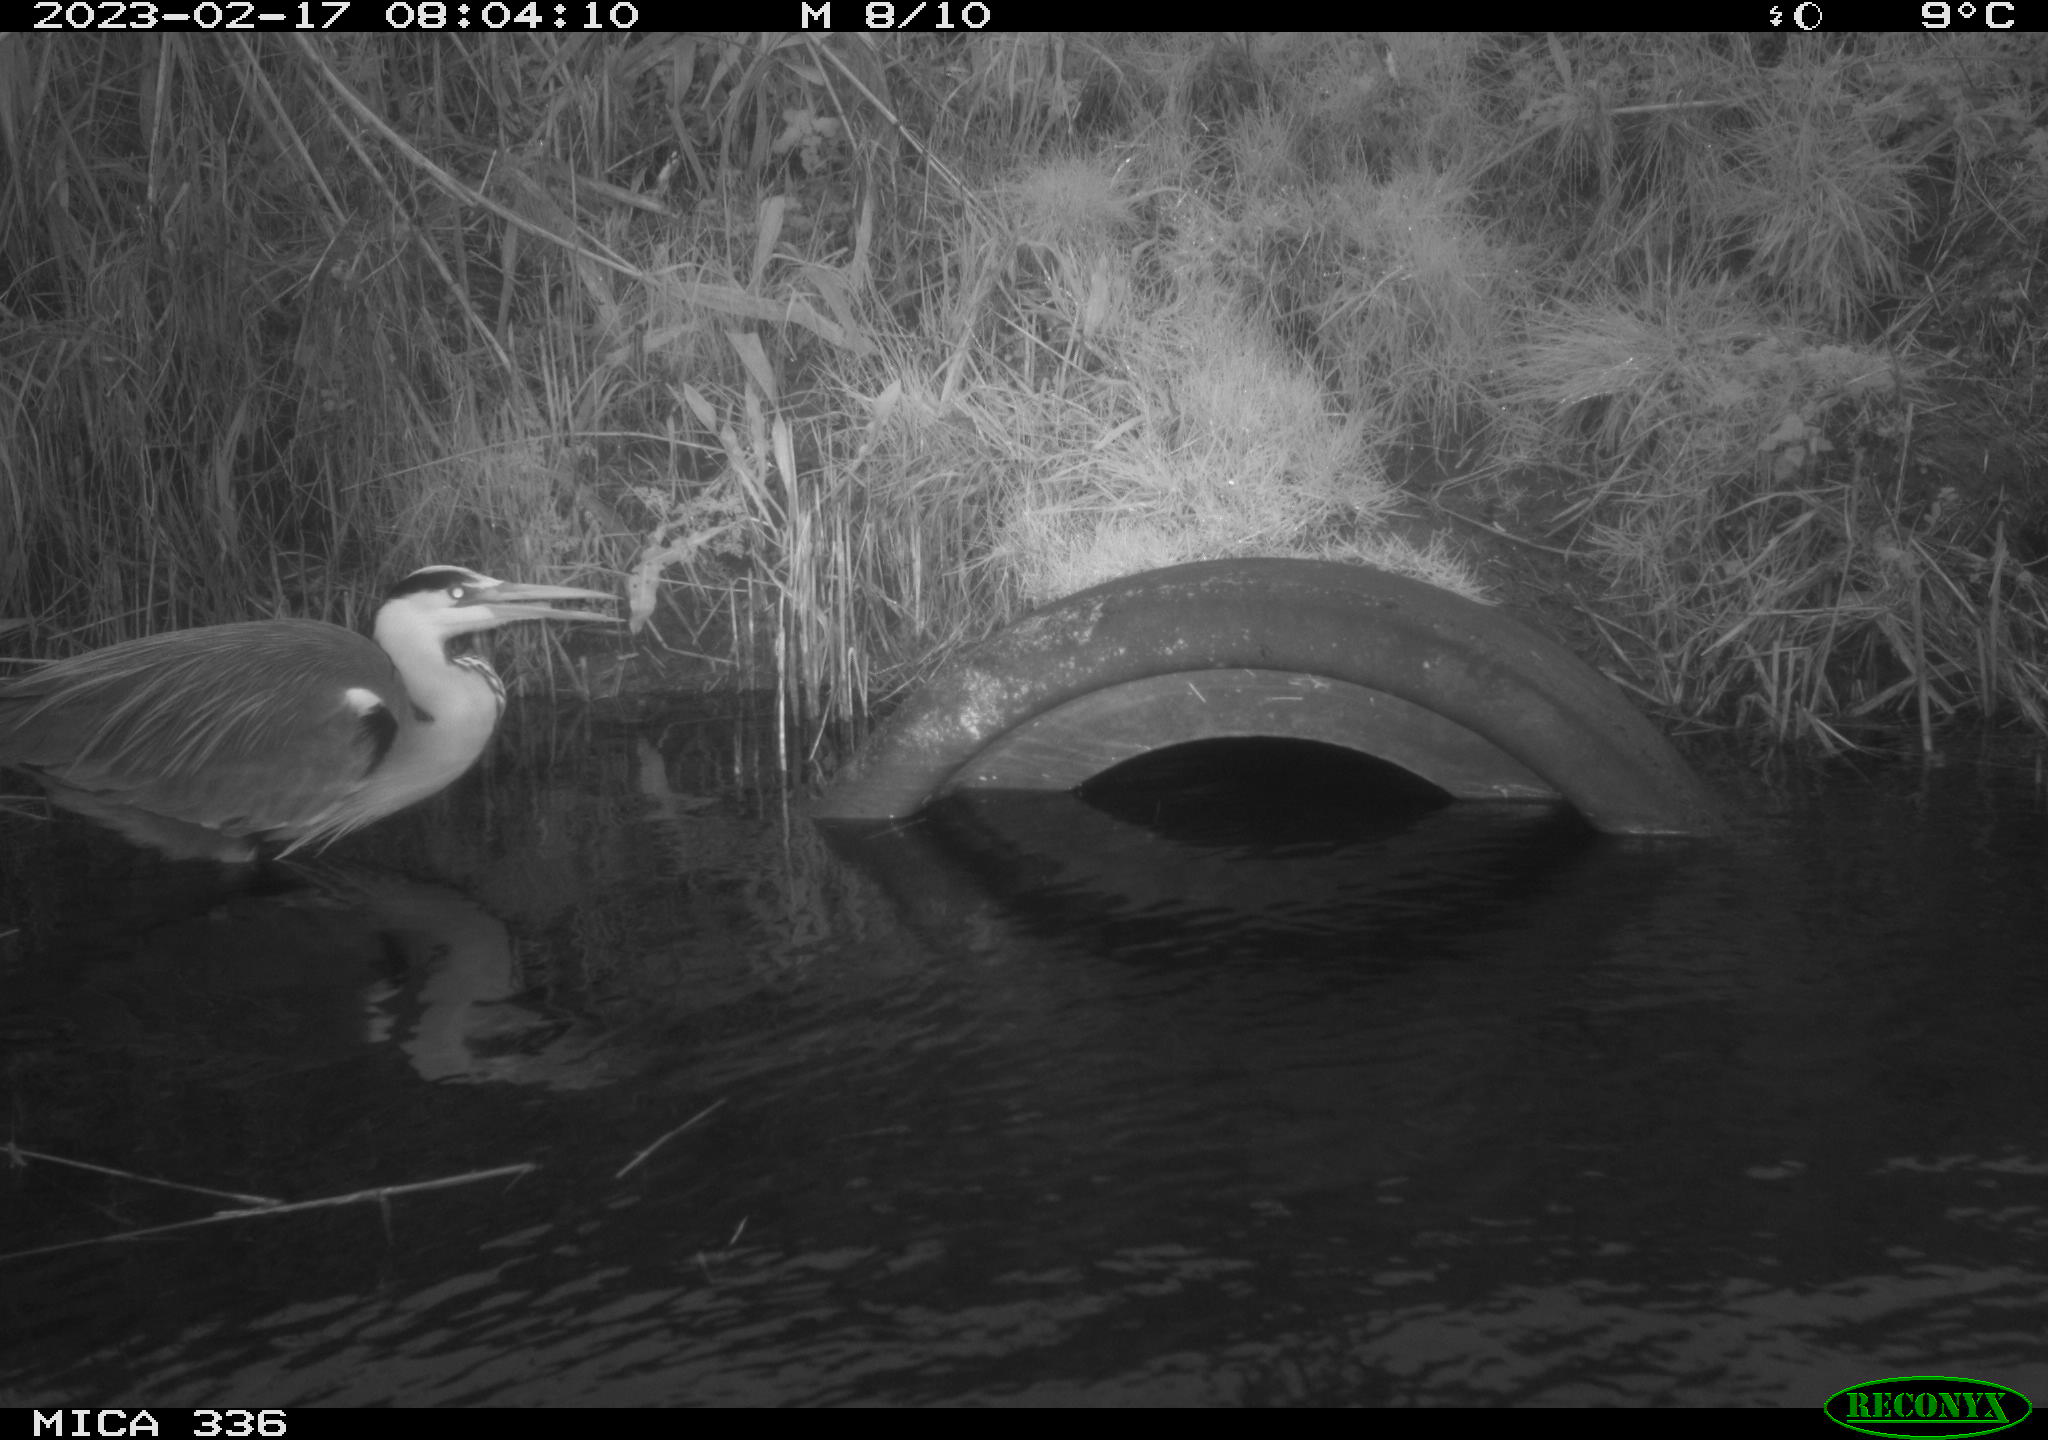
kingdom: Animalia
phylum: Chordata
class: Aves
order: Pelecaniformes
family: Ardeidae
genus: Ardea
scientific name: Ardea cinerea
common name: Grey heron
